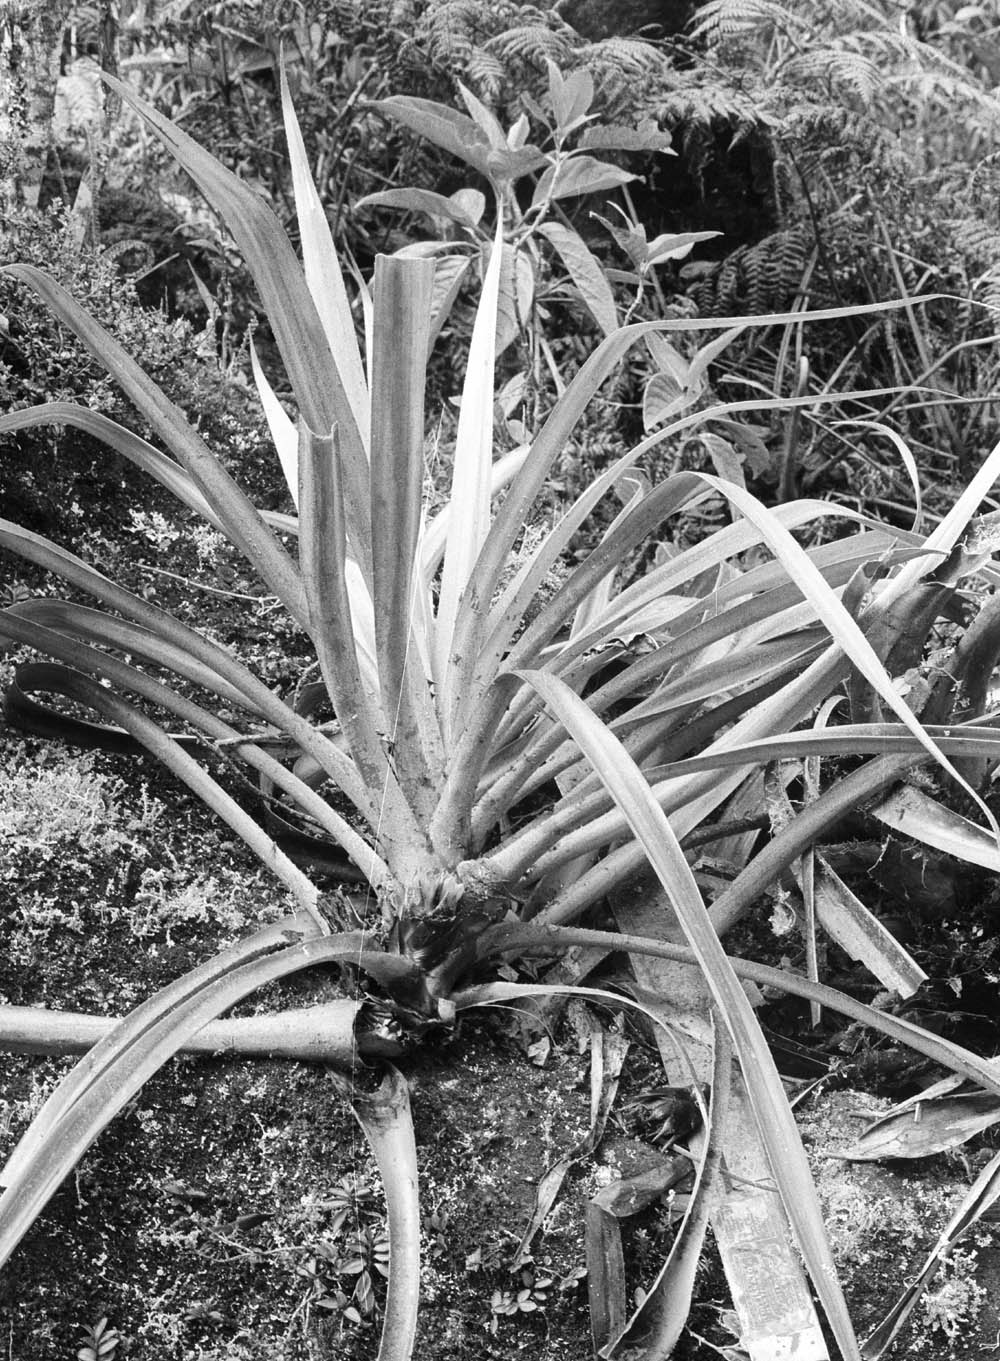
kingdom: Plantae
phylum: Tracheophyta
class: Liliopsida
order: Poales
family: Bromeliaceae
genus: Greigia
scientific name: Greigia mulfordii
